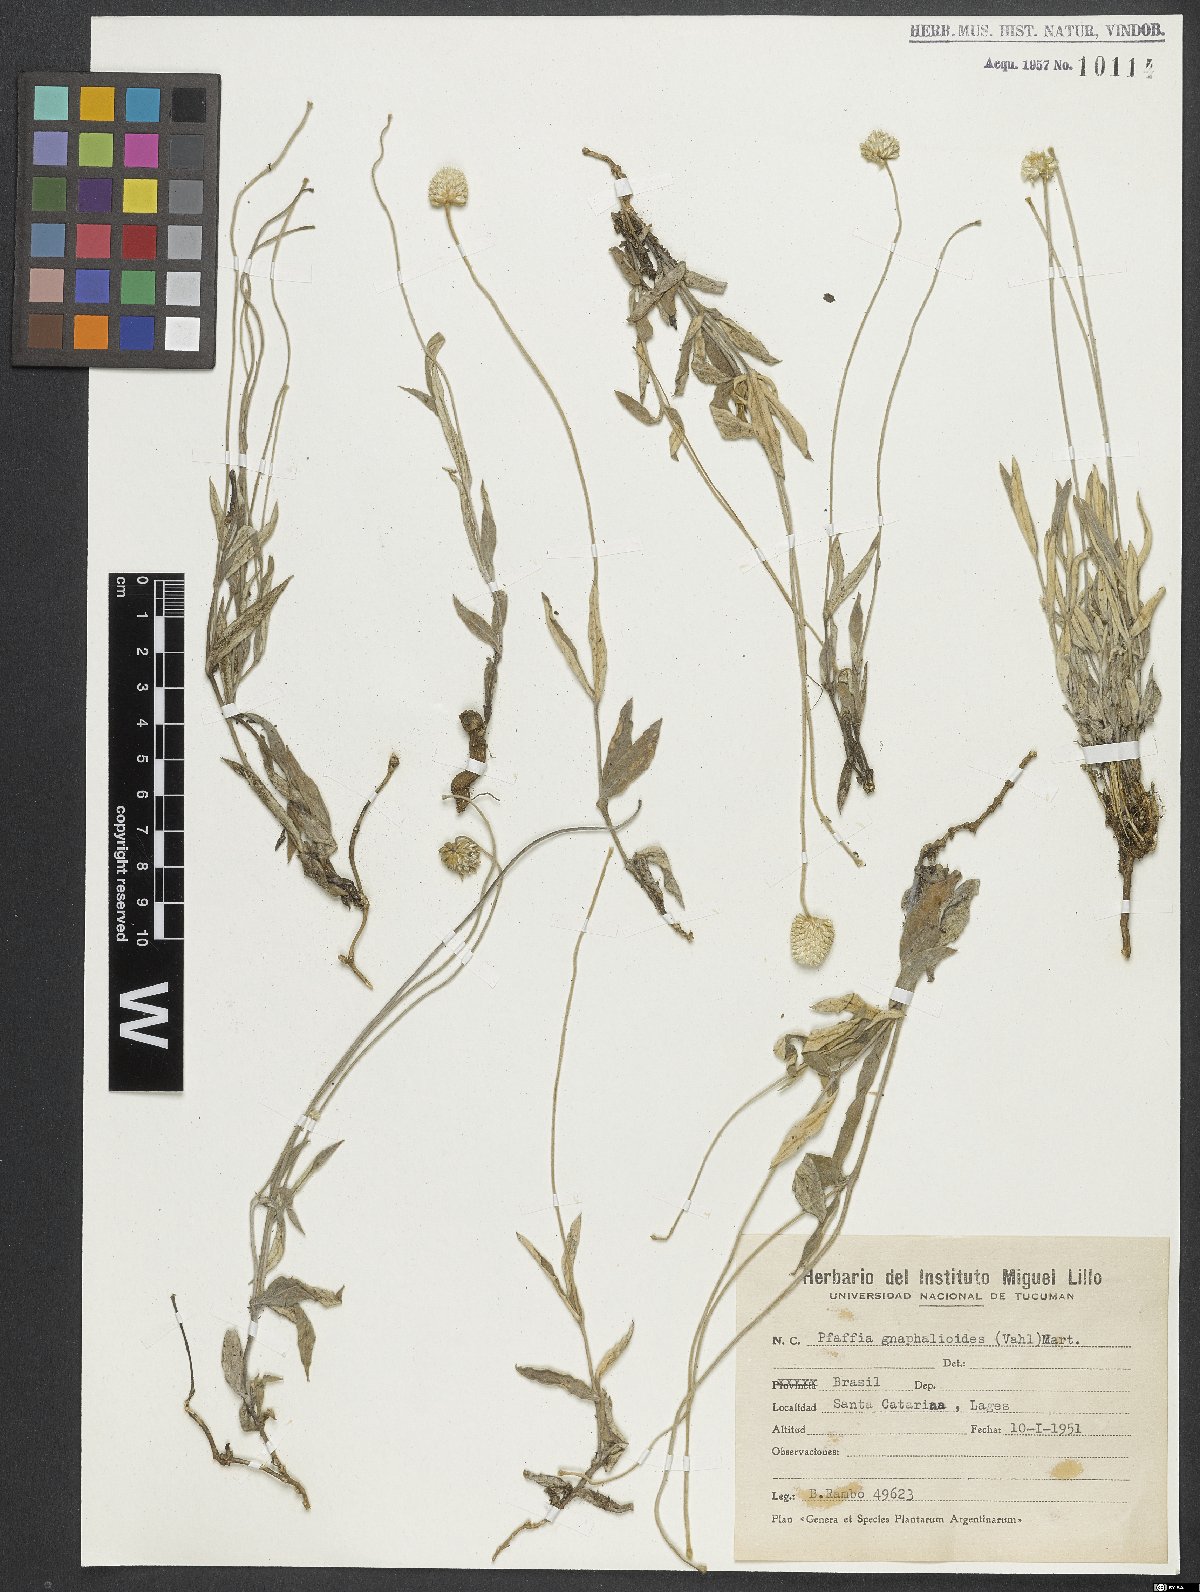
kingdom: Plantae
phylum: Tracheophyta
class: Magnoliopsida
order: Caryophyllales
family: Amaranthaceae
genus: Pfaffia
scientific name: Pfaffia gnaphaloides
